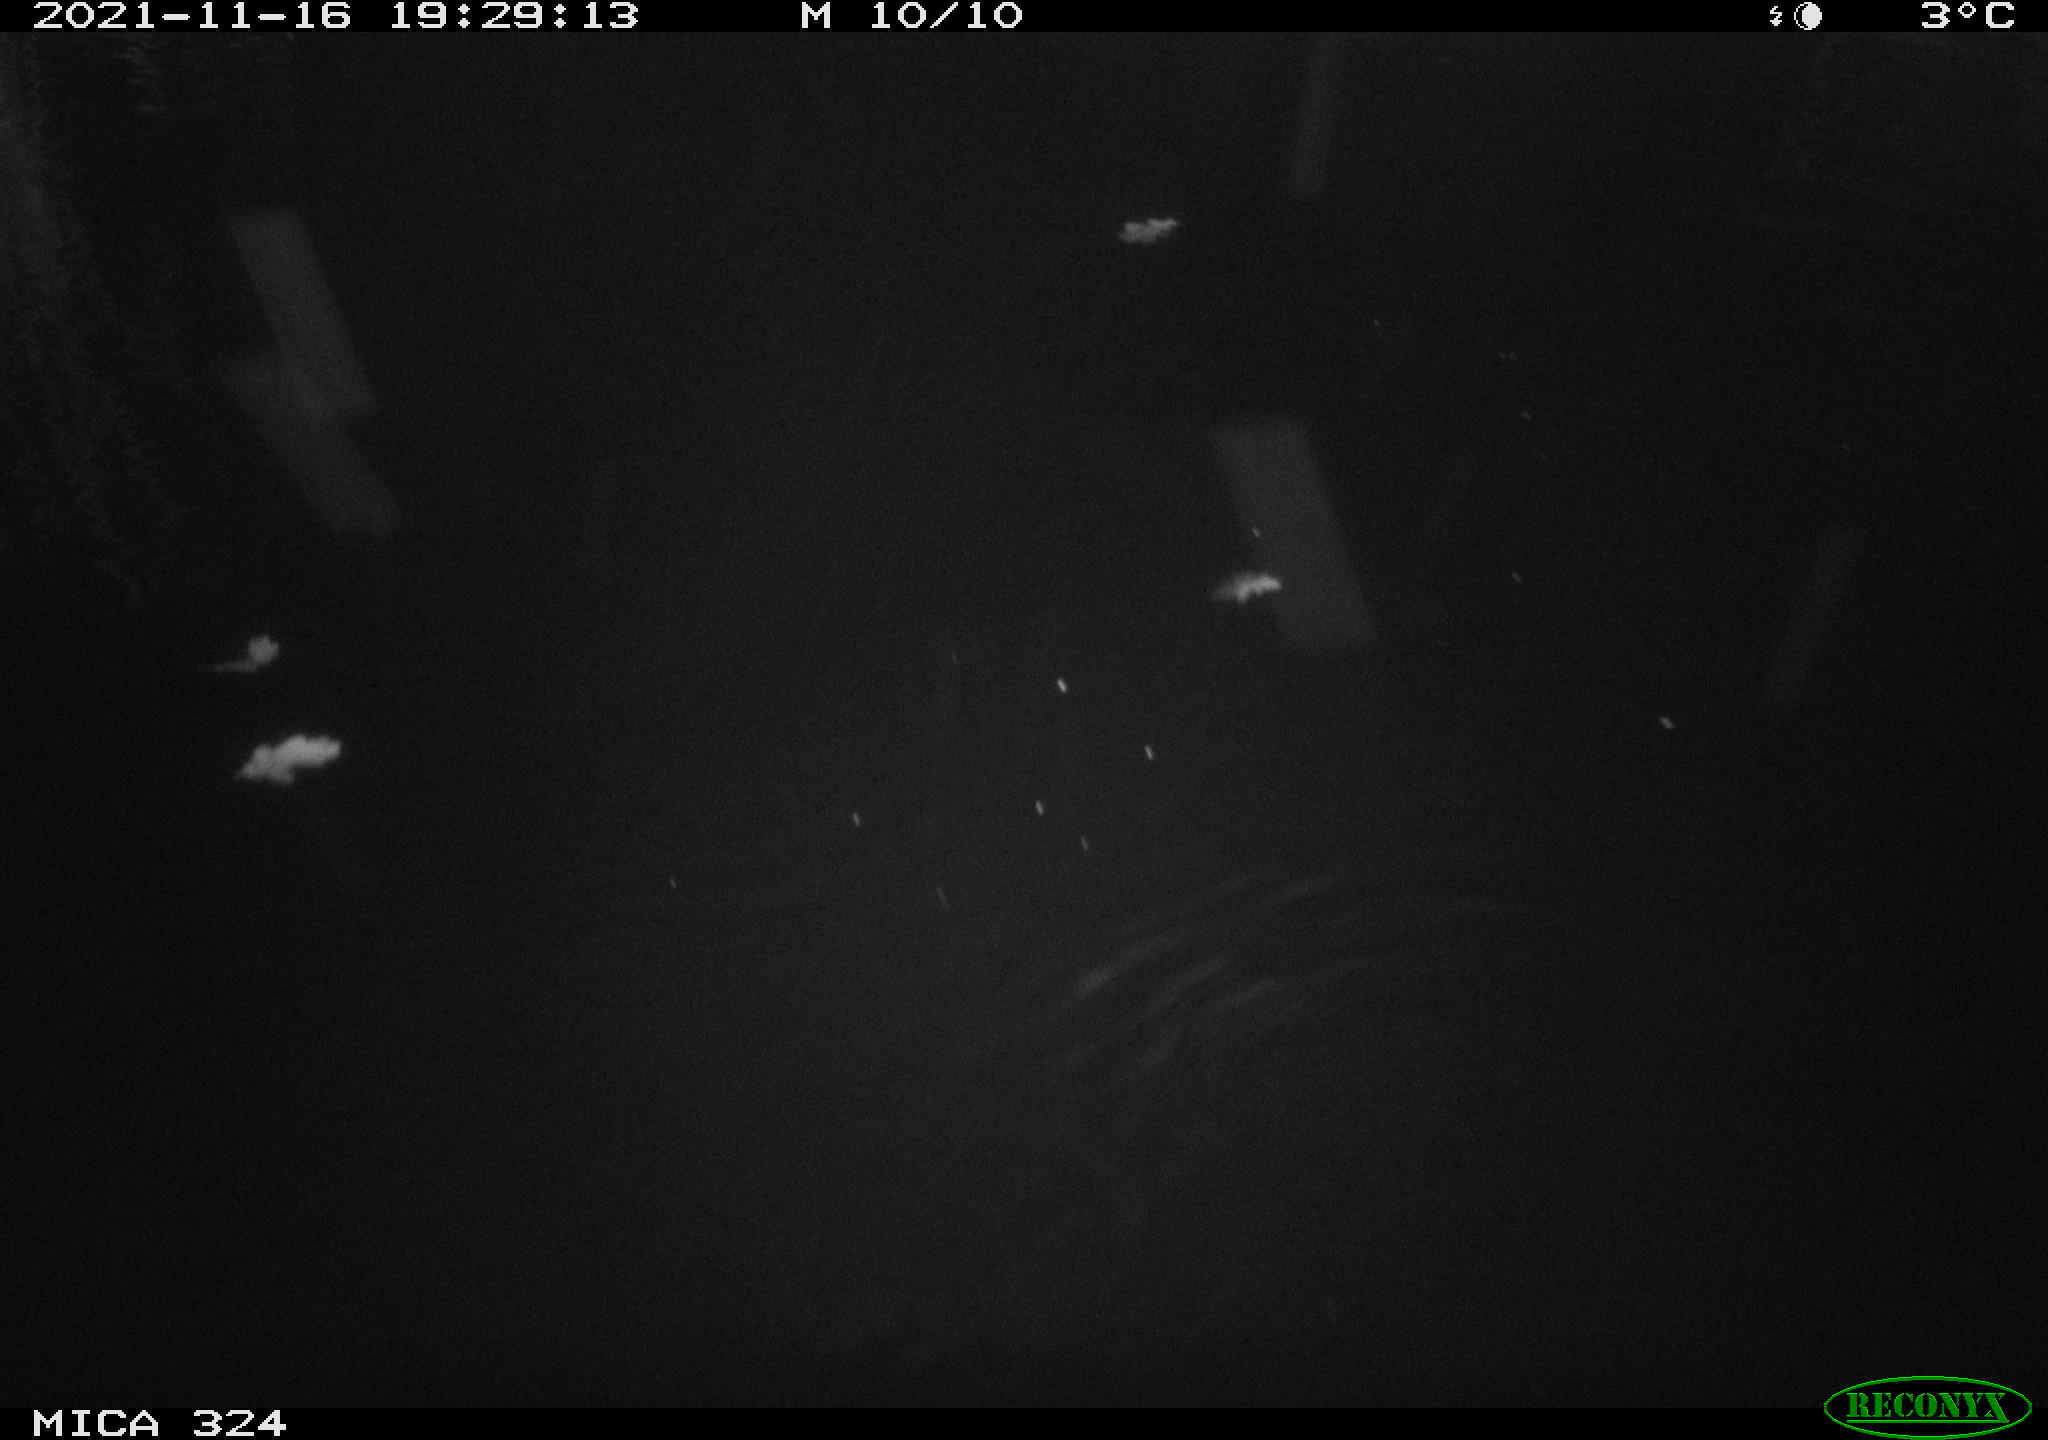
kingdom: Animalia
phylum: Chordata
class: Mammalia
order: Rodentia
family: Cricetidae
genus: Ondatra
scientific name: Ondatra zibethicus
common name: Muskrat
